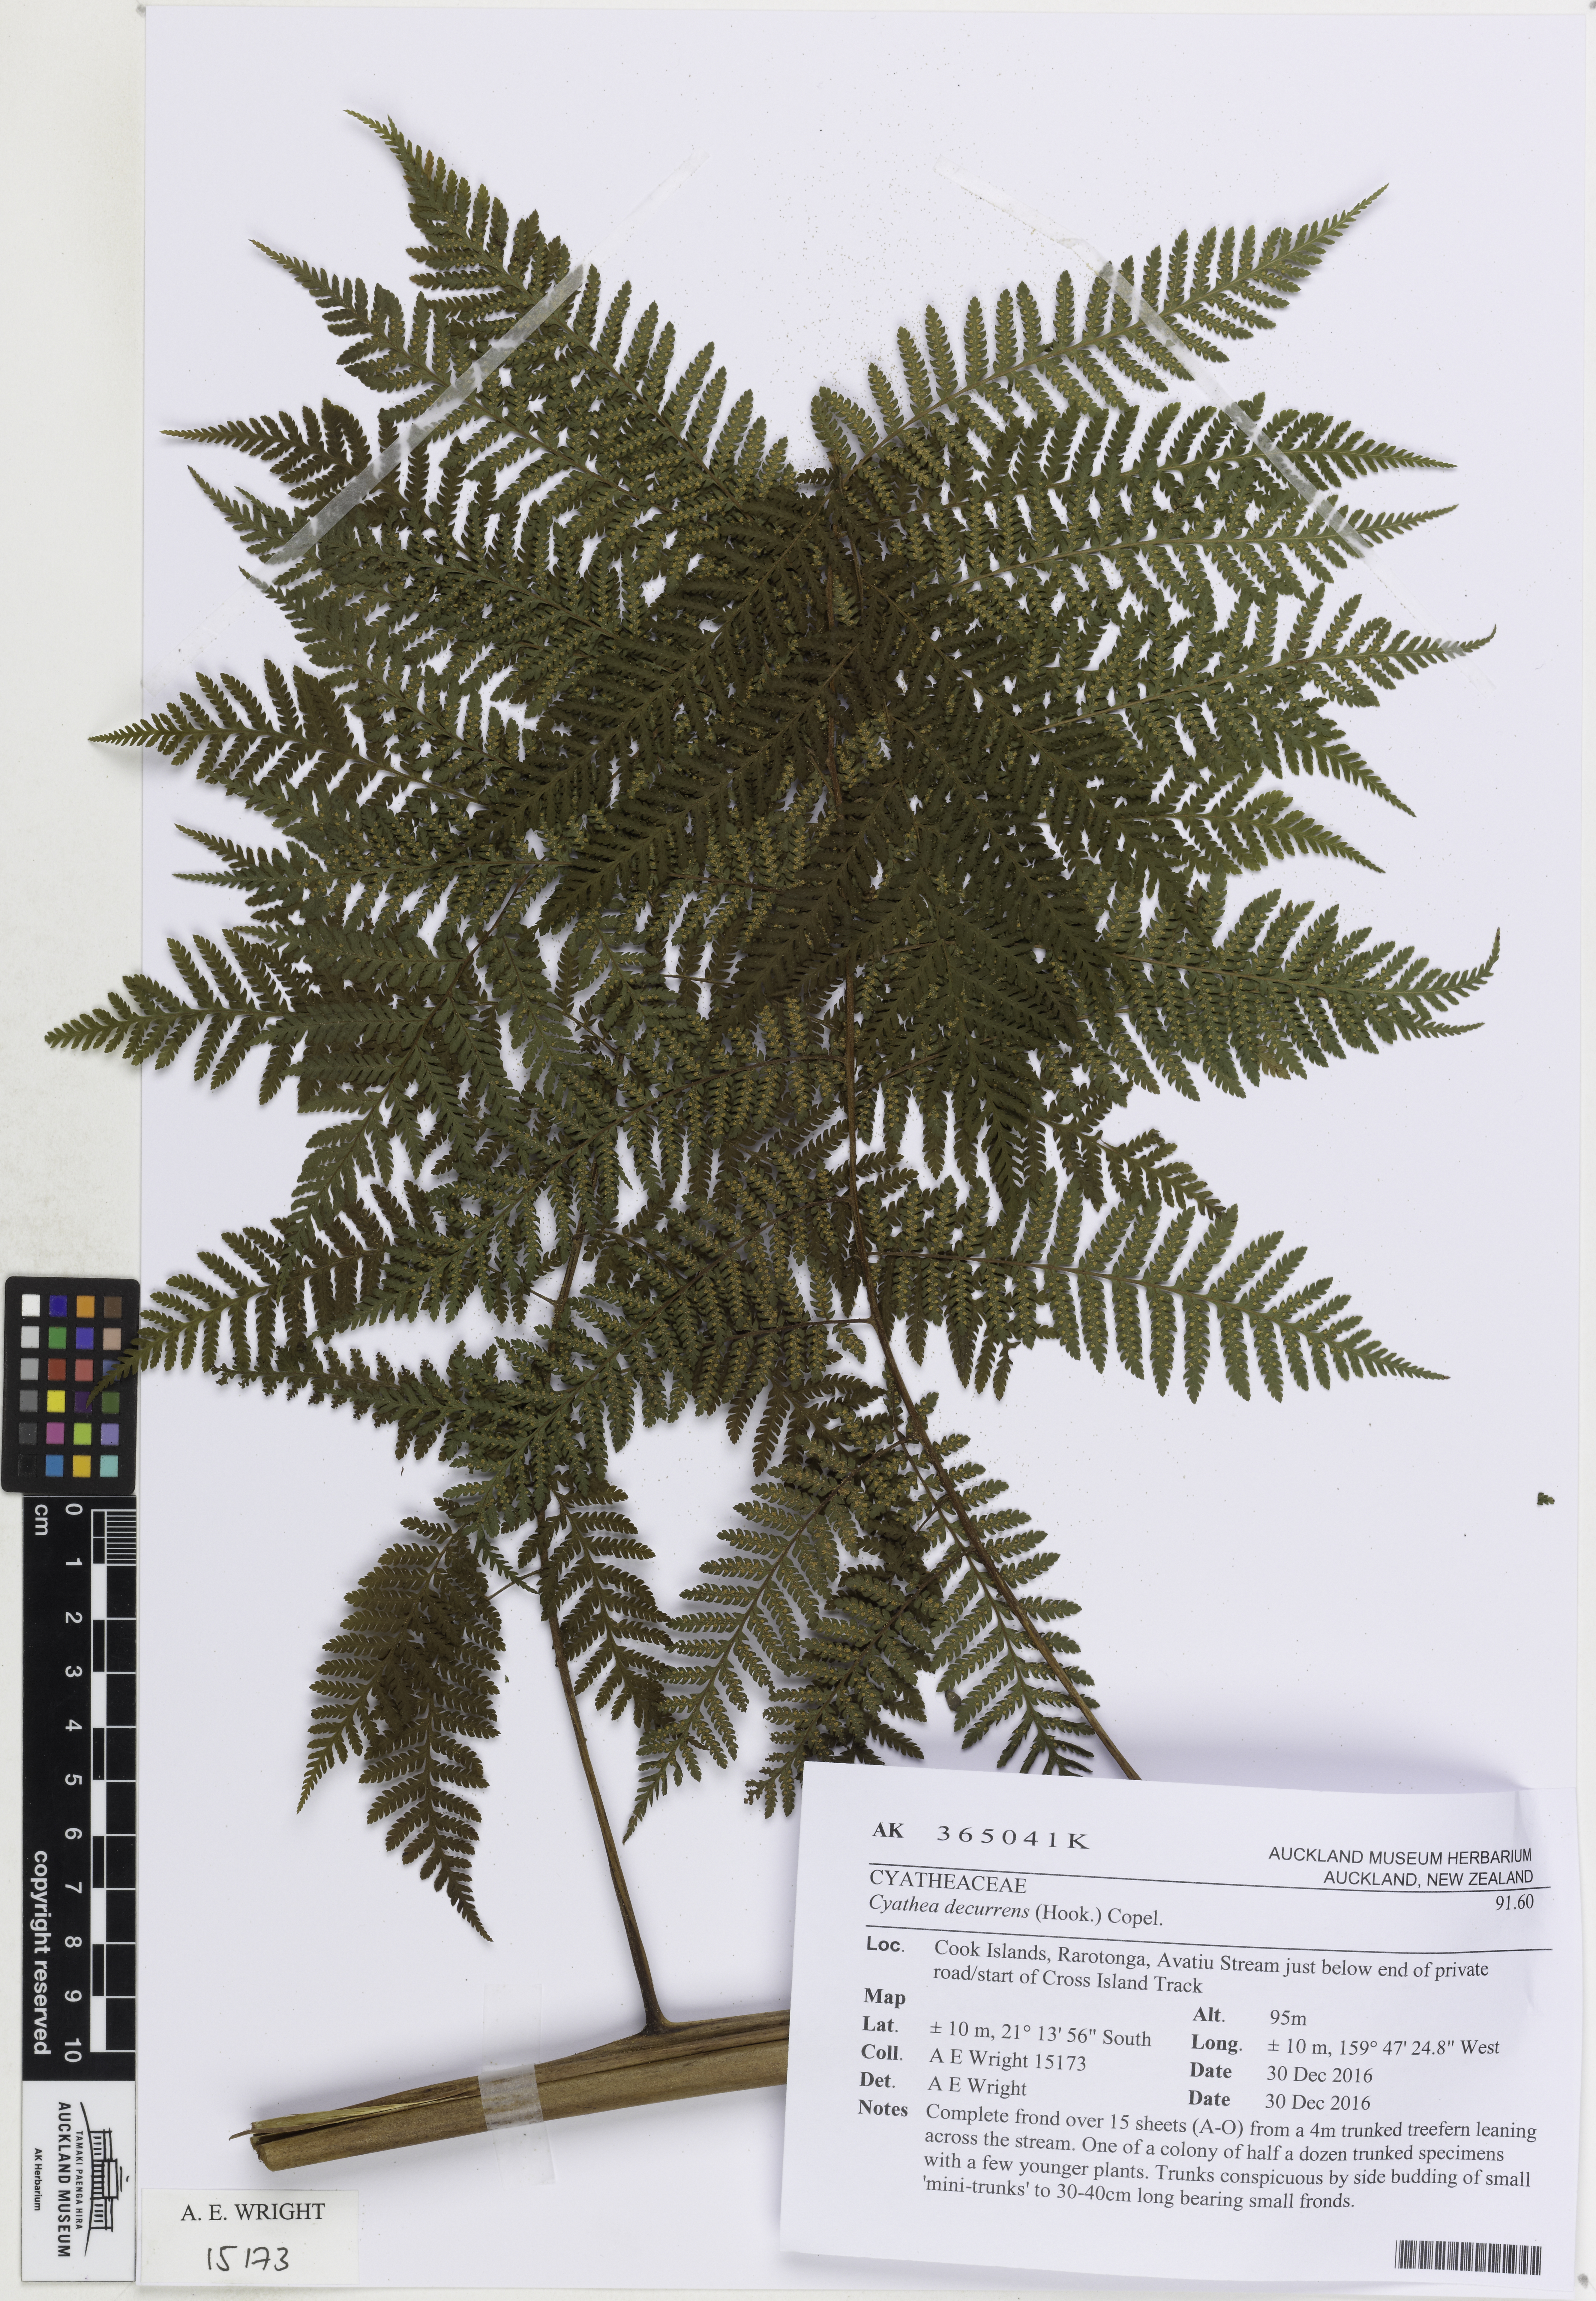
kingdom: Plantae
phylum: Tracheophyta
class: Polypodiopsida
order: Cyatheales
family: Cyatheaceae
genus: Cyathea
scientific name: Cyathea decurrens
